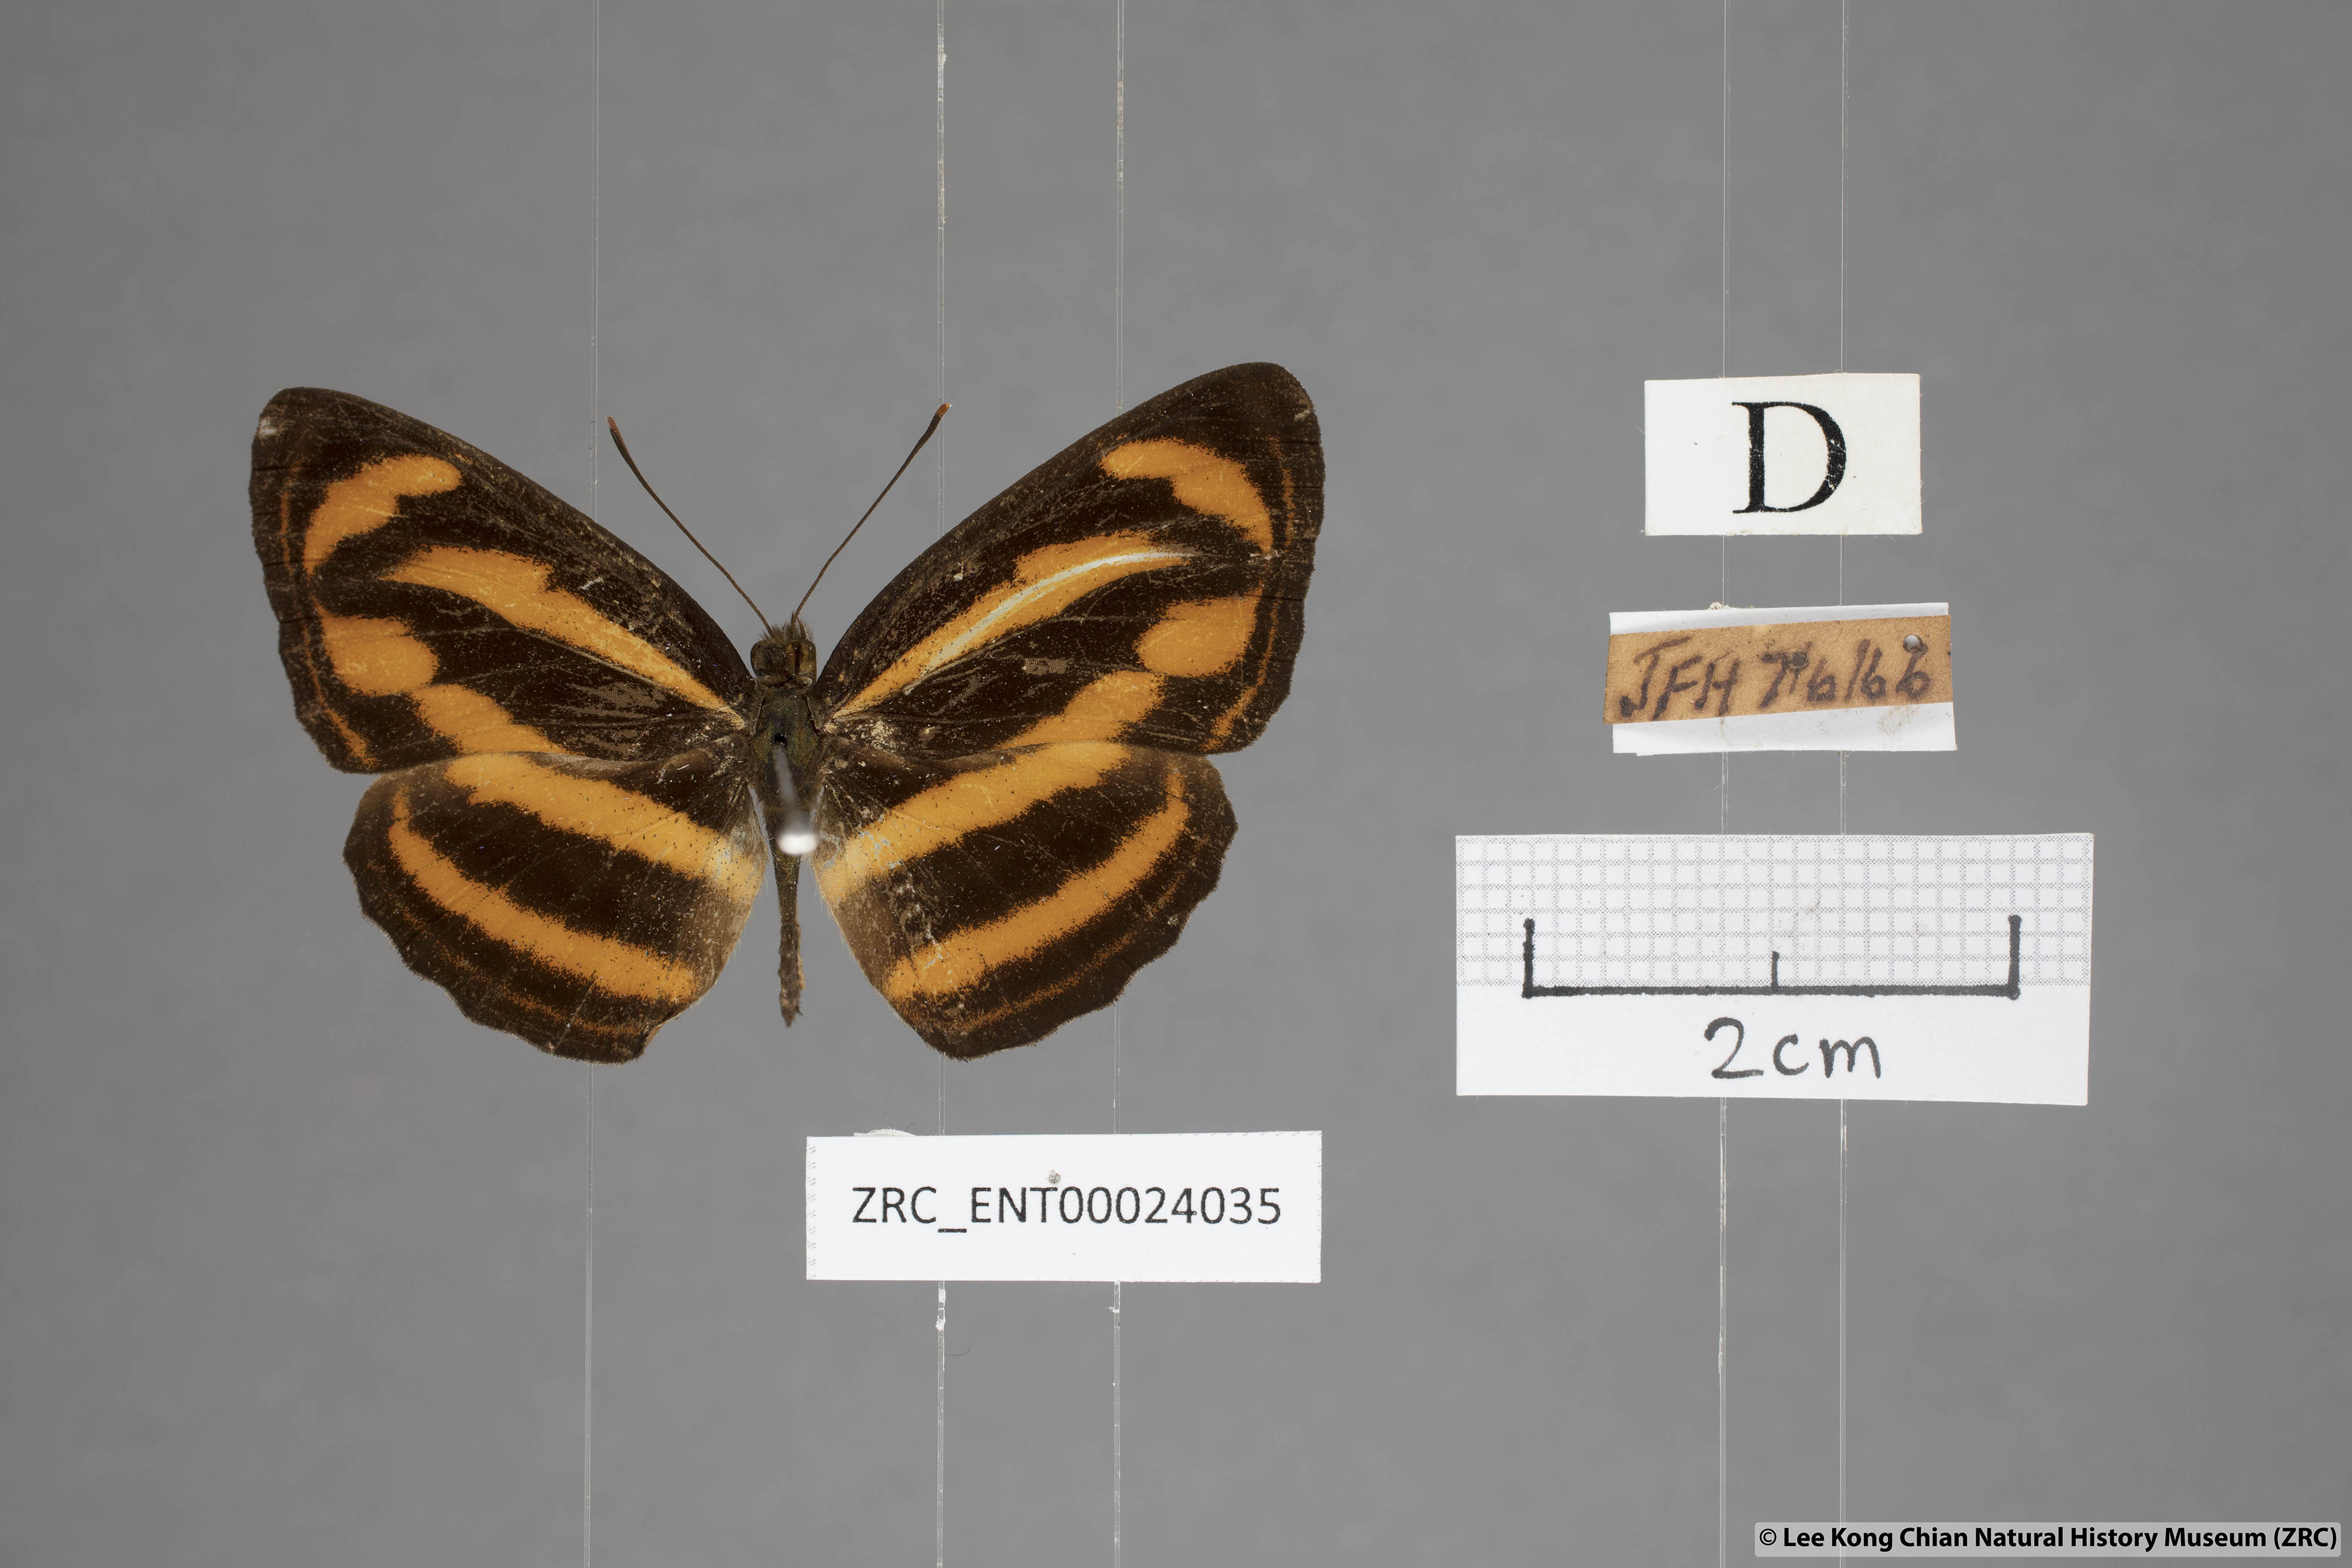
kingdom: Animalia
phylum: Arthropoda
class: Insecta
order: Lepidoptera
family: Nymphalidae
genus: Neptis
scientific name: Neptis miah
